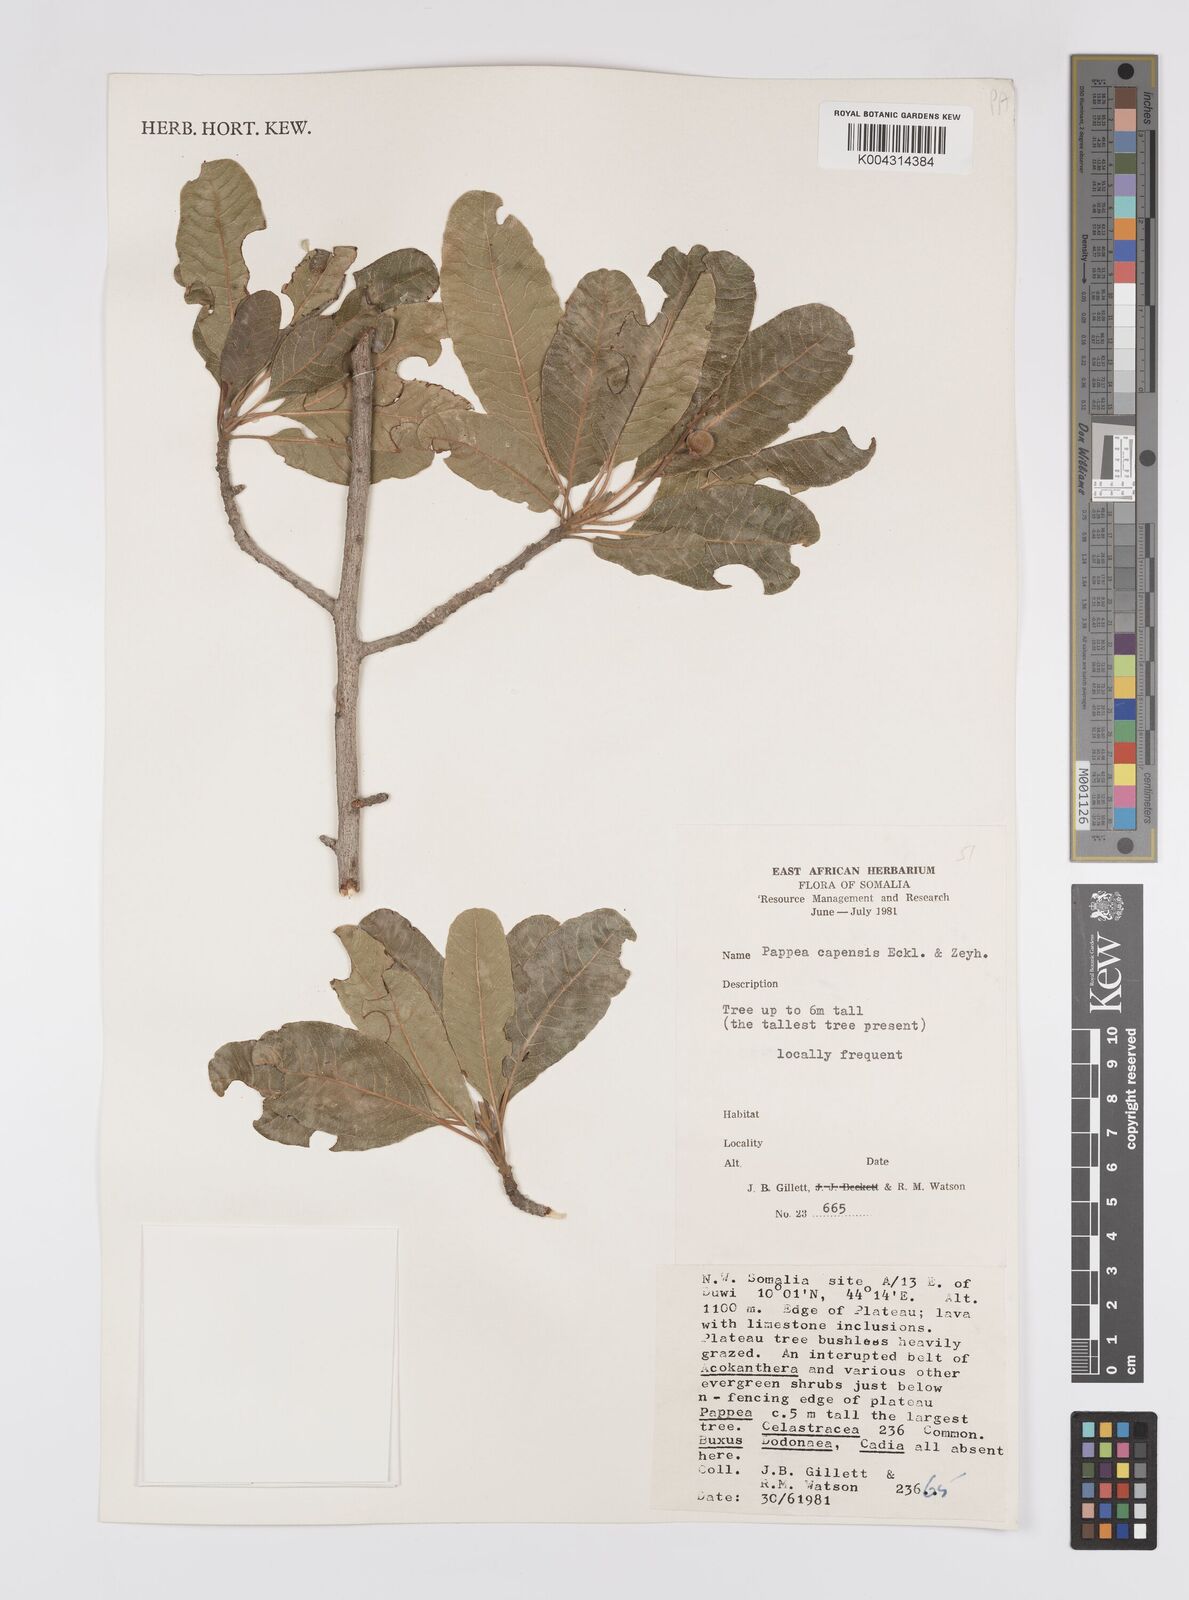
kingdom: Plantae
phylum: Tracheophyta
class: Magnoliopsida
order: Sapindales
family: Sapindaceae
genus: Pappea
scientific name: Pappea capensis
